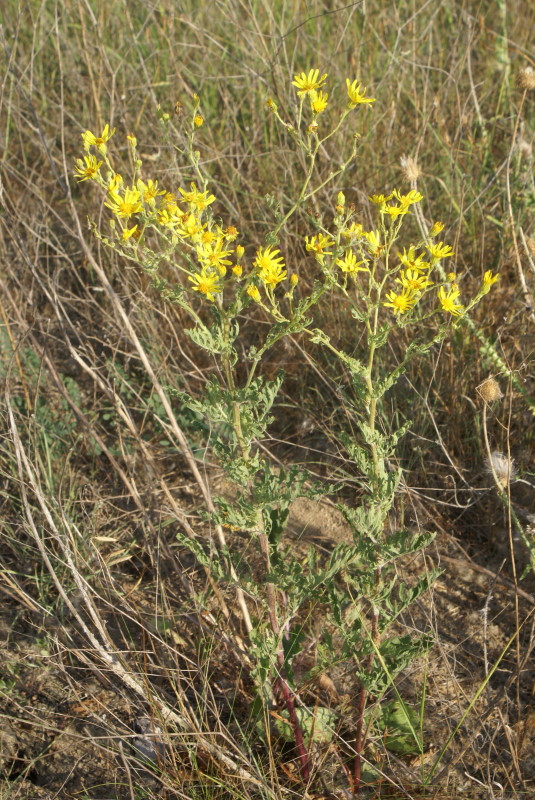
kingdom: Plantae
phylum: Tracheophyta
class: Magnoliopsida
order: Asterales
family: Asteraceae
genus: Jacobaea
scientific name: Jacobaea vulgaris
